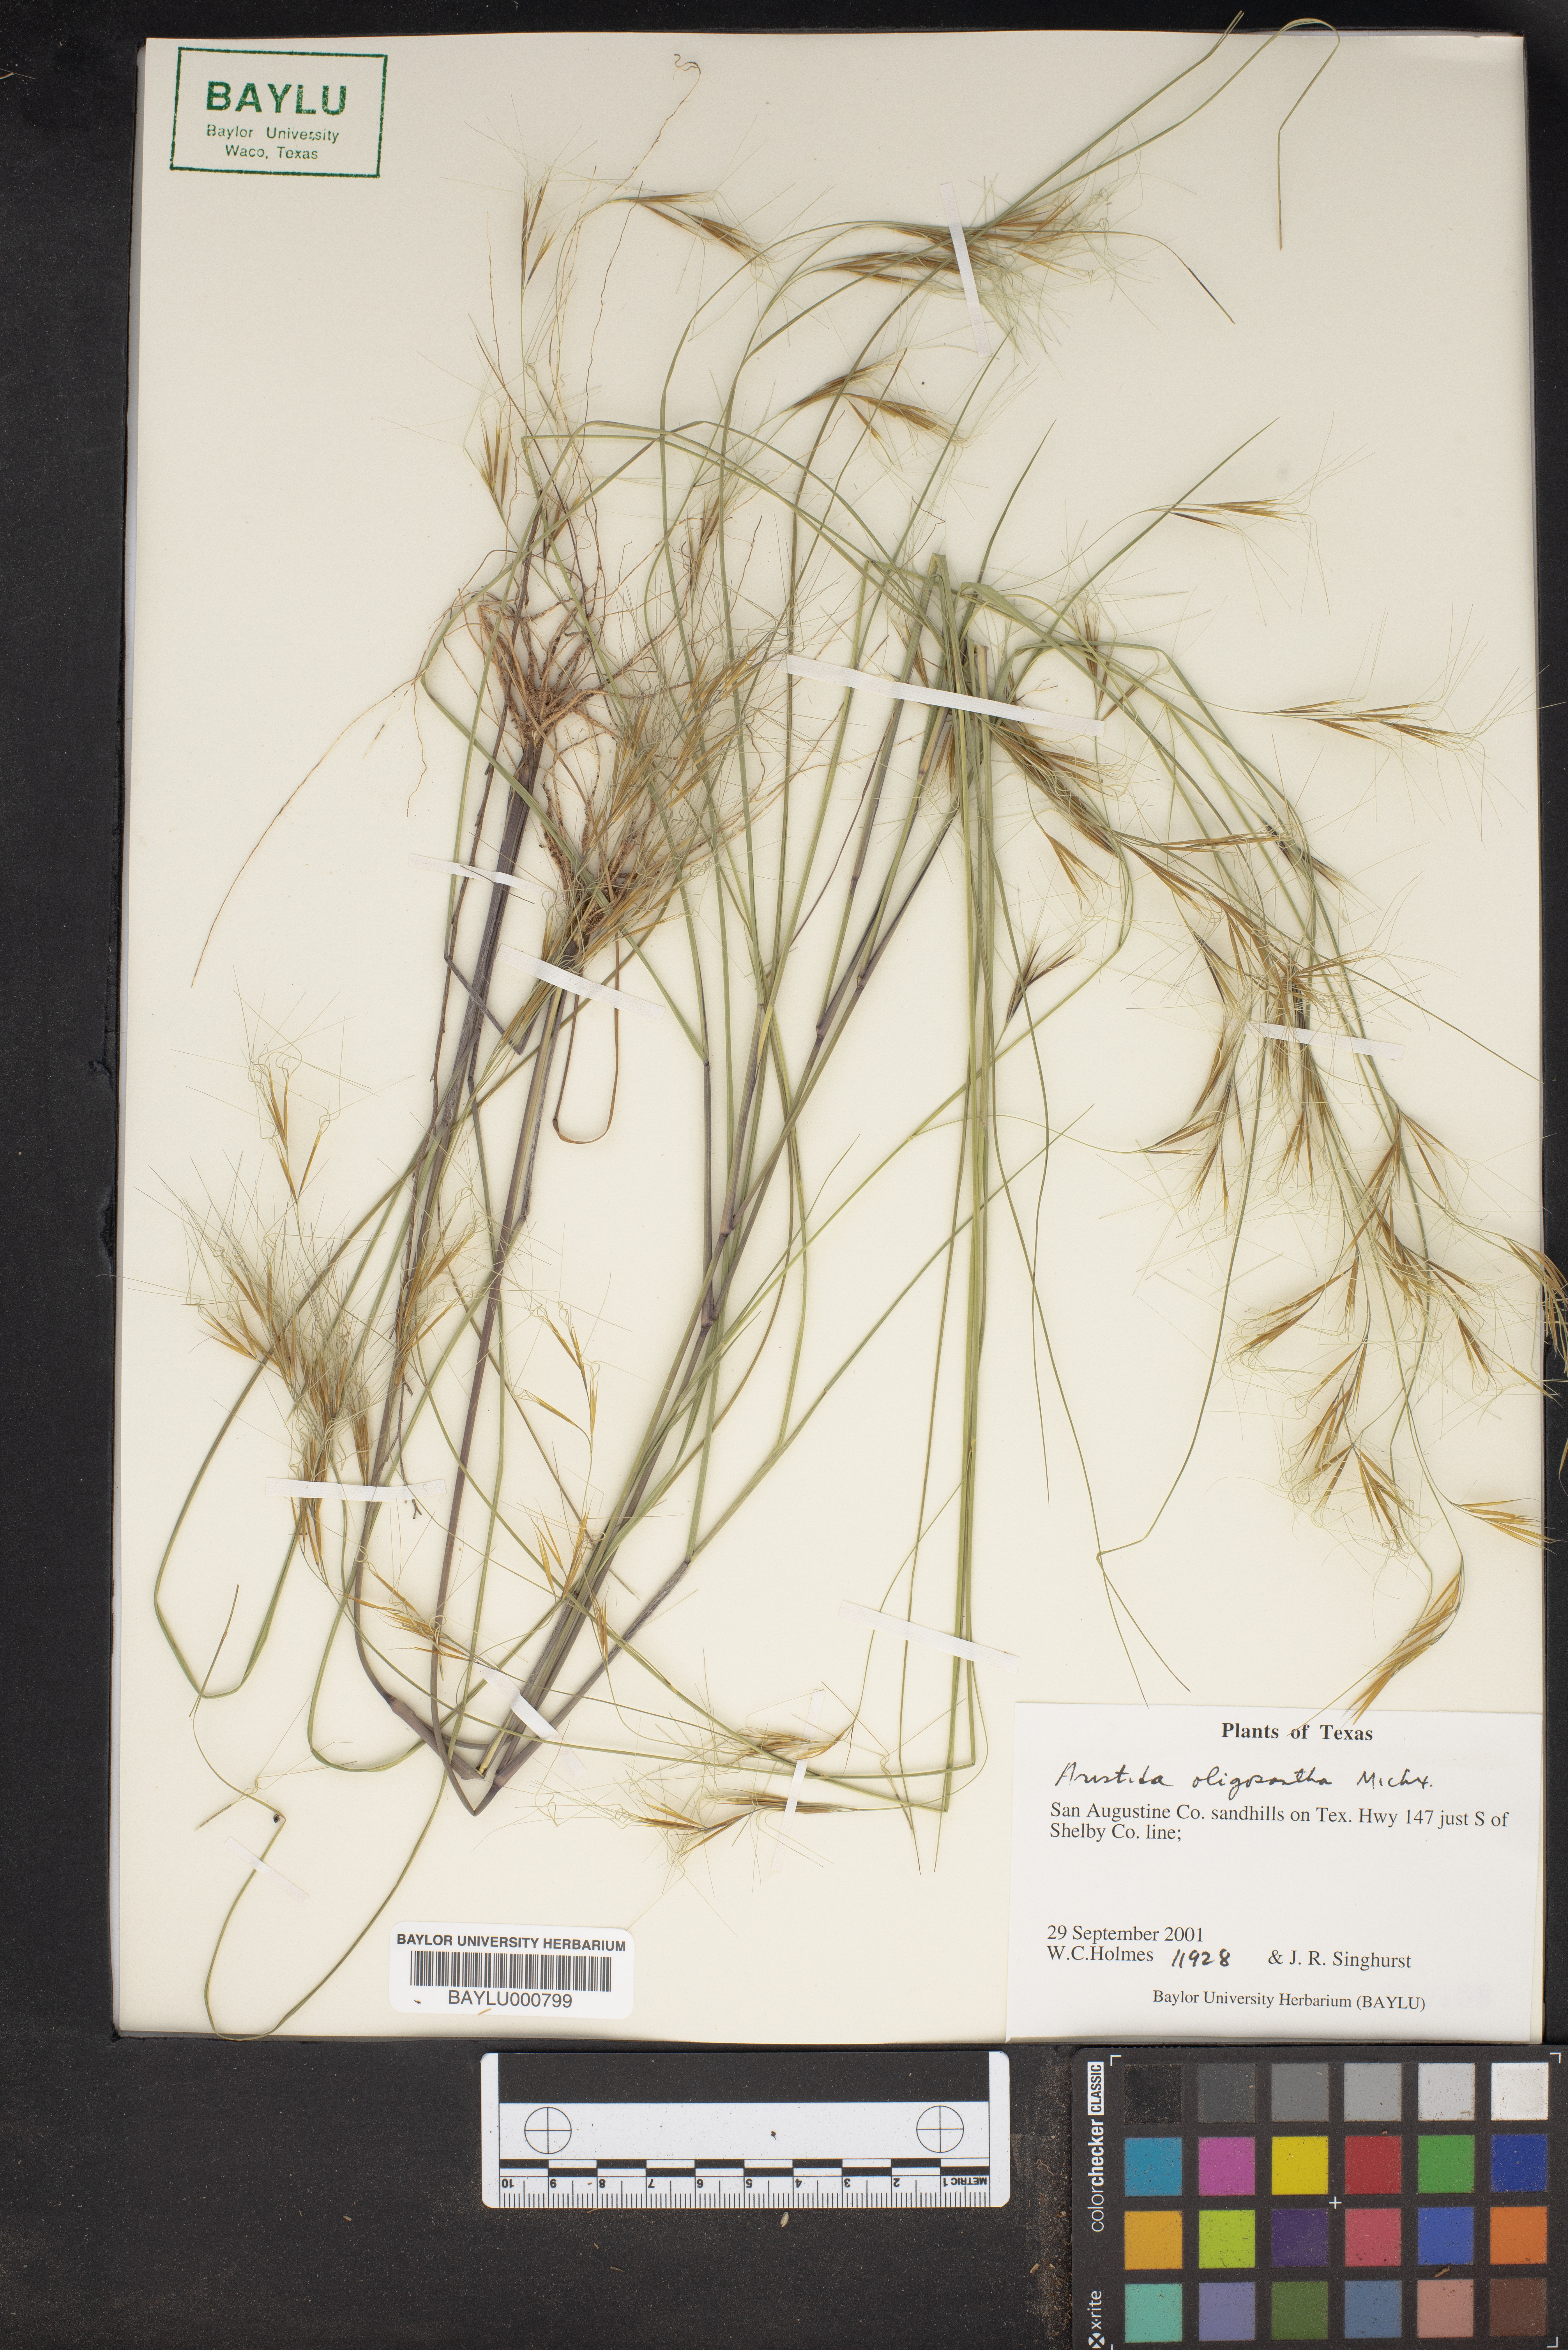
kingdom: Plantae
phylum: Tracheophyta
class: Liliopsida
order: Poales
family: Poaceae
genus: Aristida
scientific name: Aristida oligantha
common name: Few-flowered aristida
